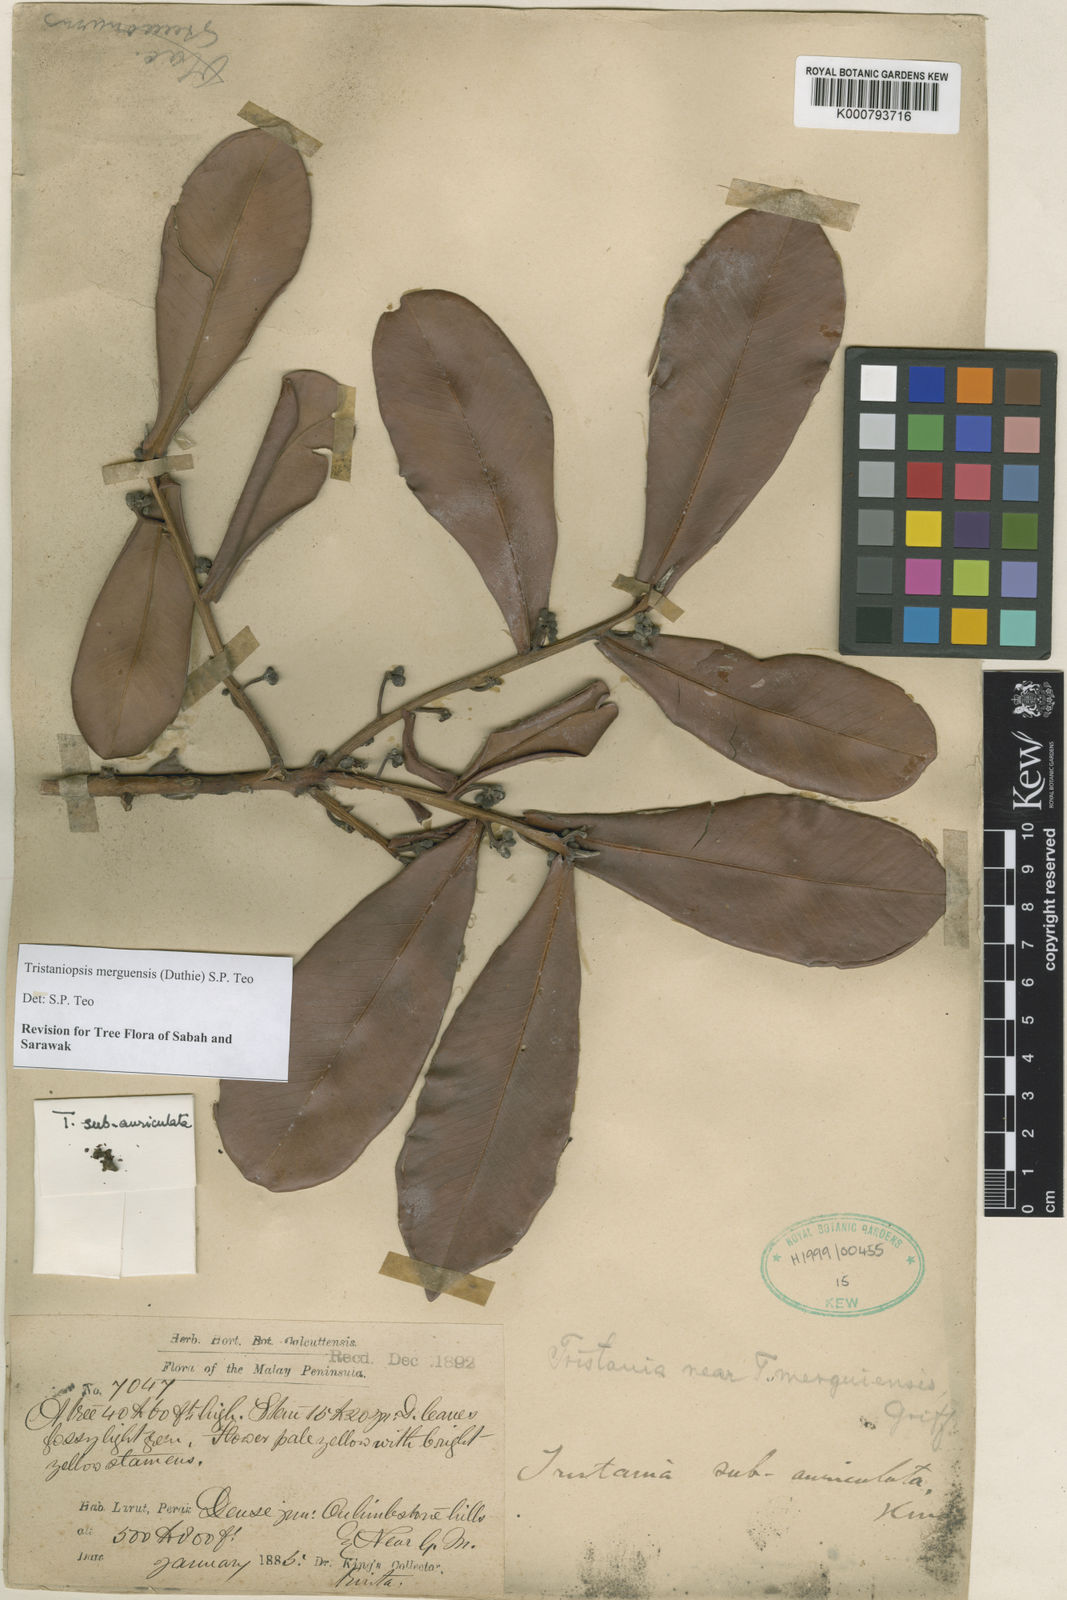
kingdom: Plantae
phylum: Tracheophyta
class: Magnoliopsida
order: Myrtales
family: Myrtaceae
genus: Tristaniopsis
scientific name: Tristaniopsis
